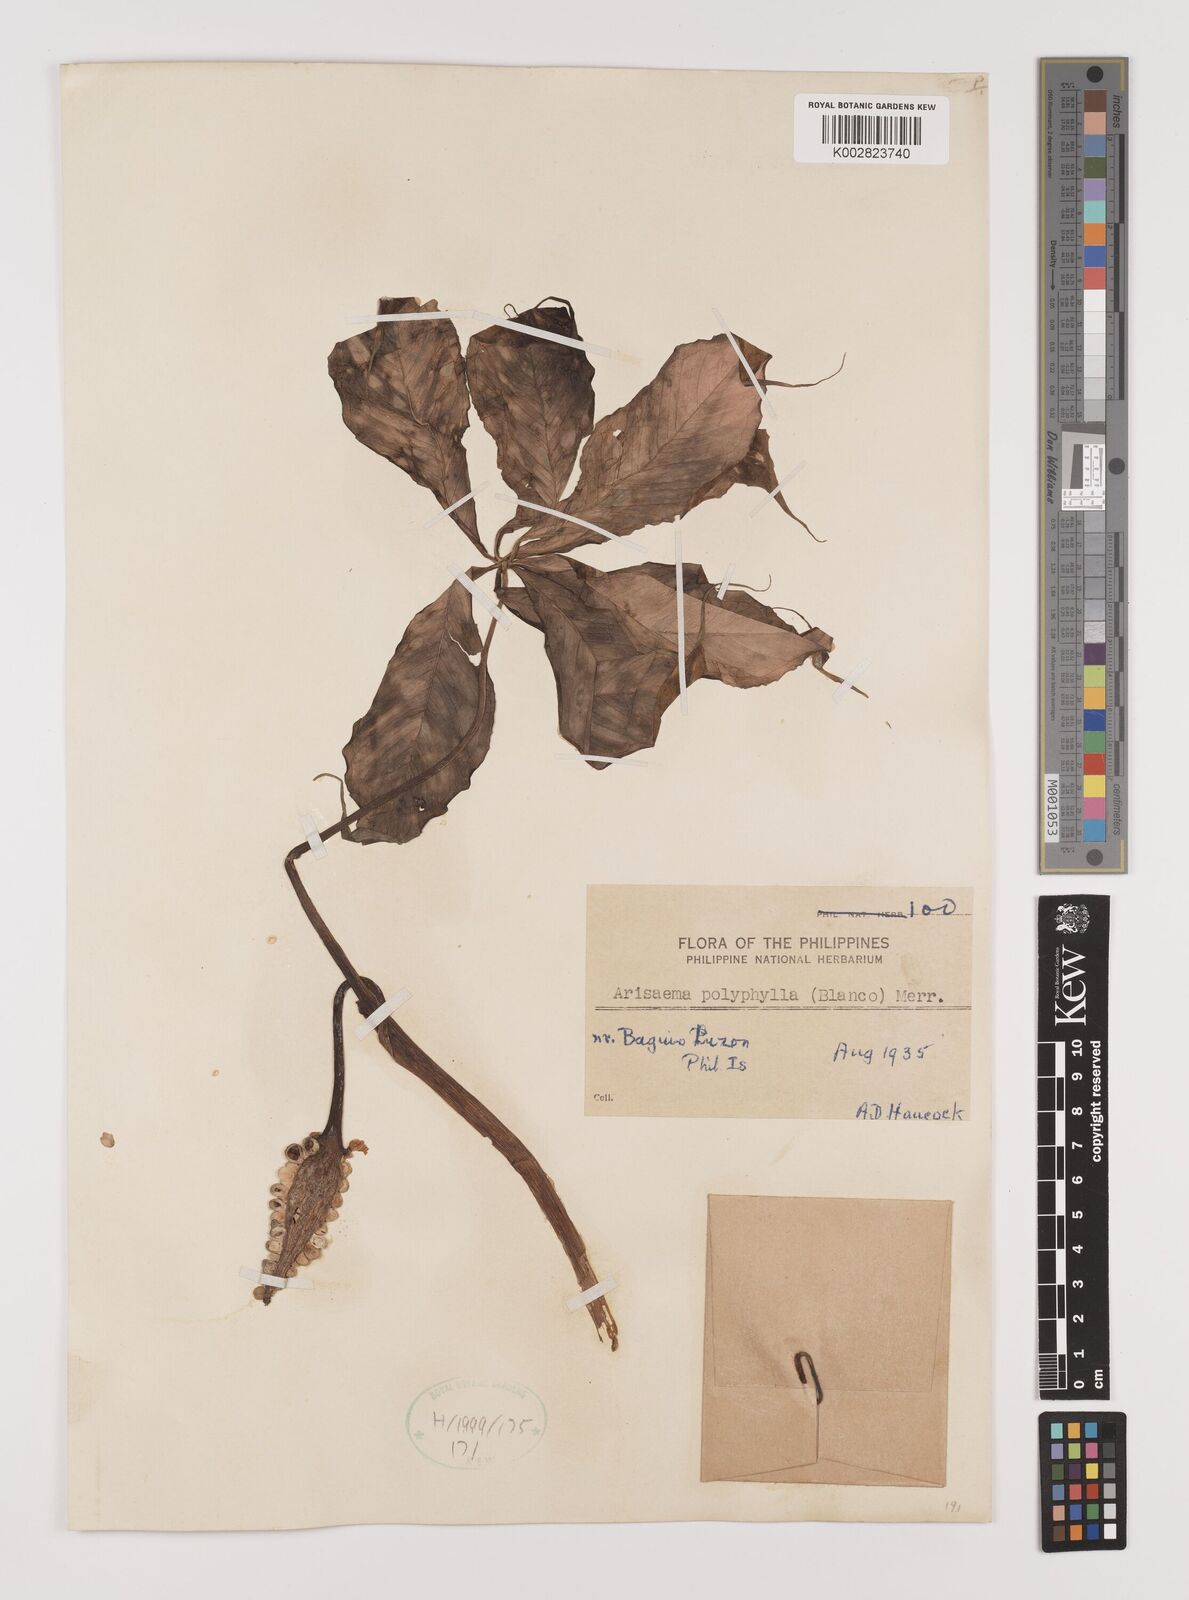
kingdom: Plantae
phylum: Tracheophyta
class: Liliopsida
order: Alismatales
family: Araceae
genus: Arisaema
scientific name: Arisaema polyphyllum
